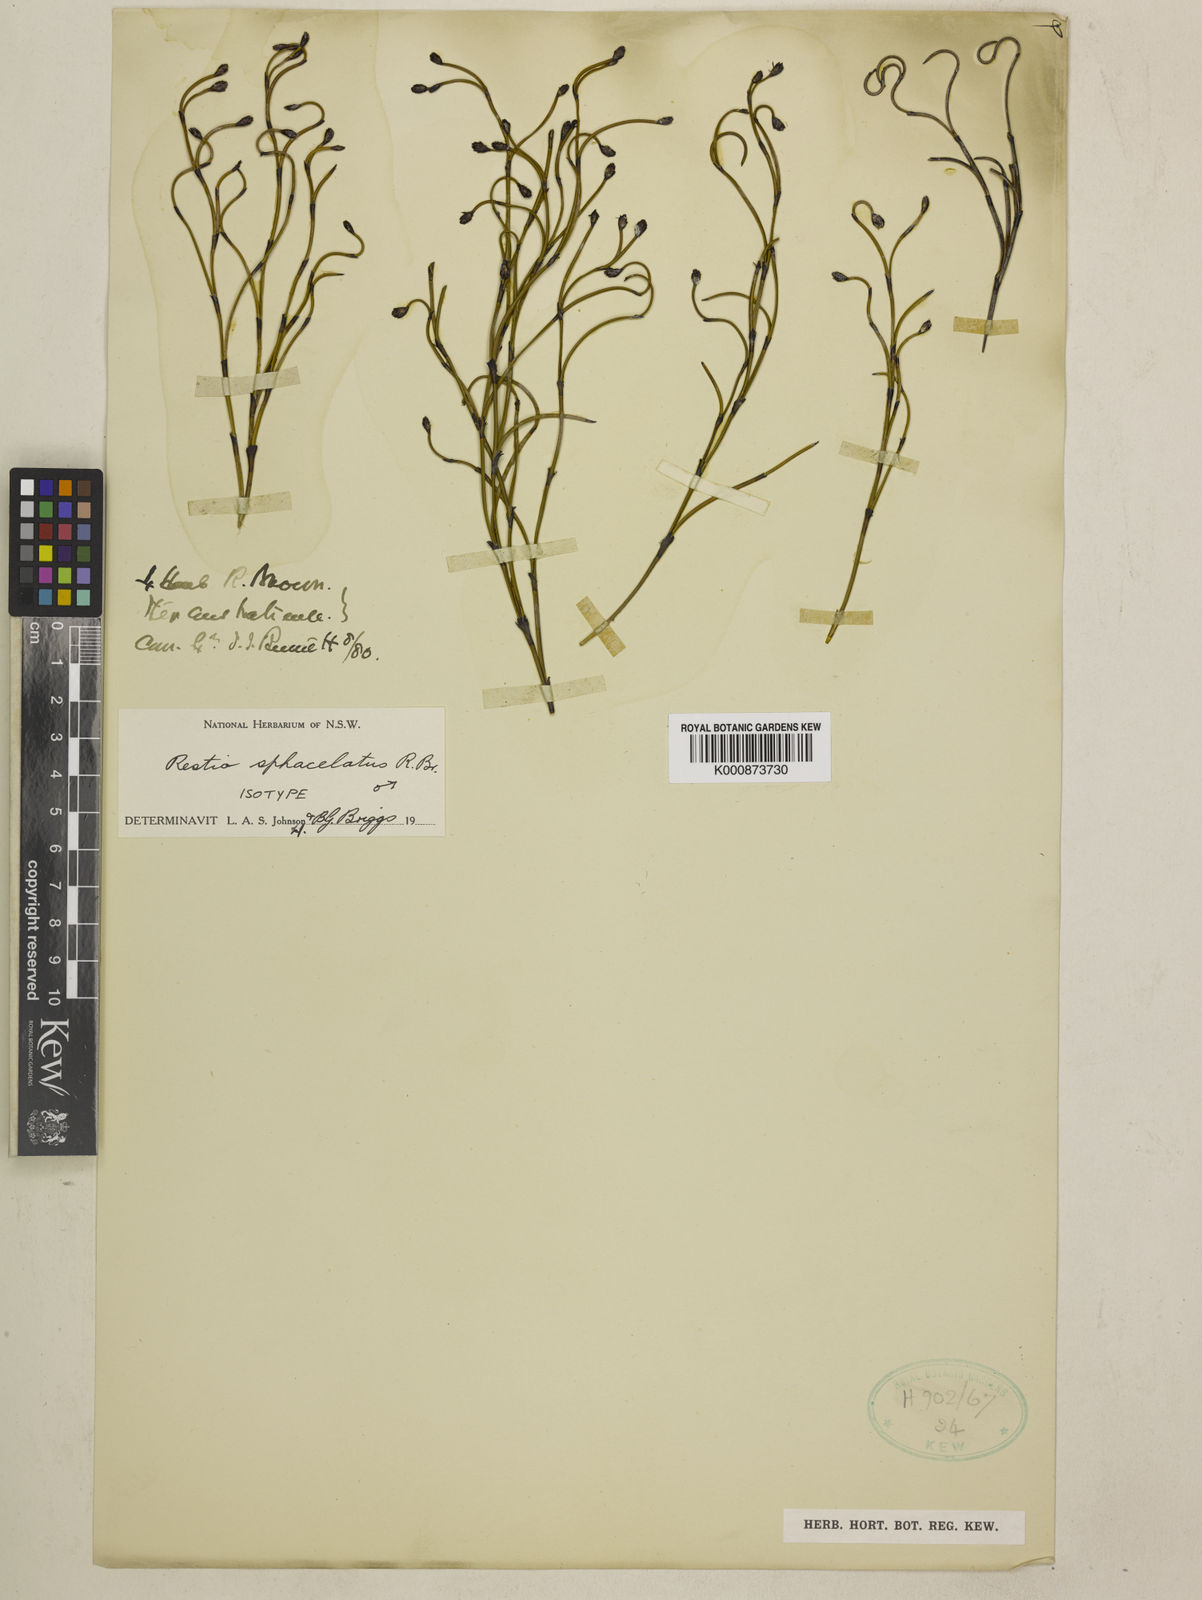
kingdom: Plantae
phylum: Tracheophyta
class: Liliopsida
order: Poales
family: Restionaceae
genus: Chordifex
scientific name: Chordifex sphacelatus
